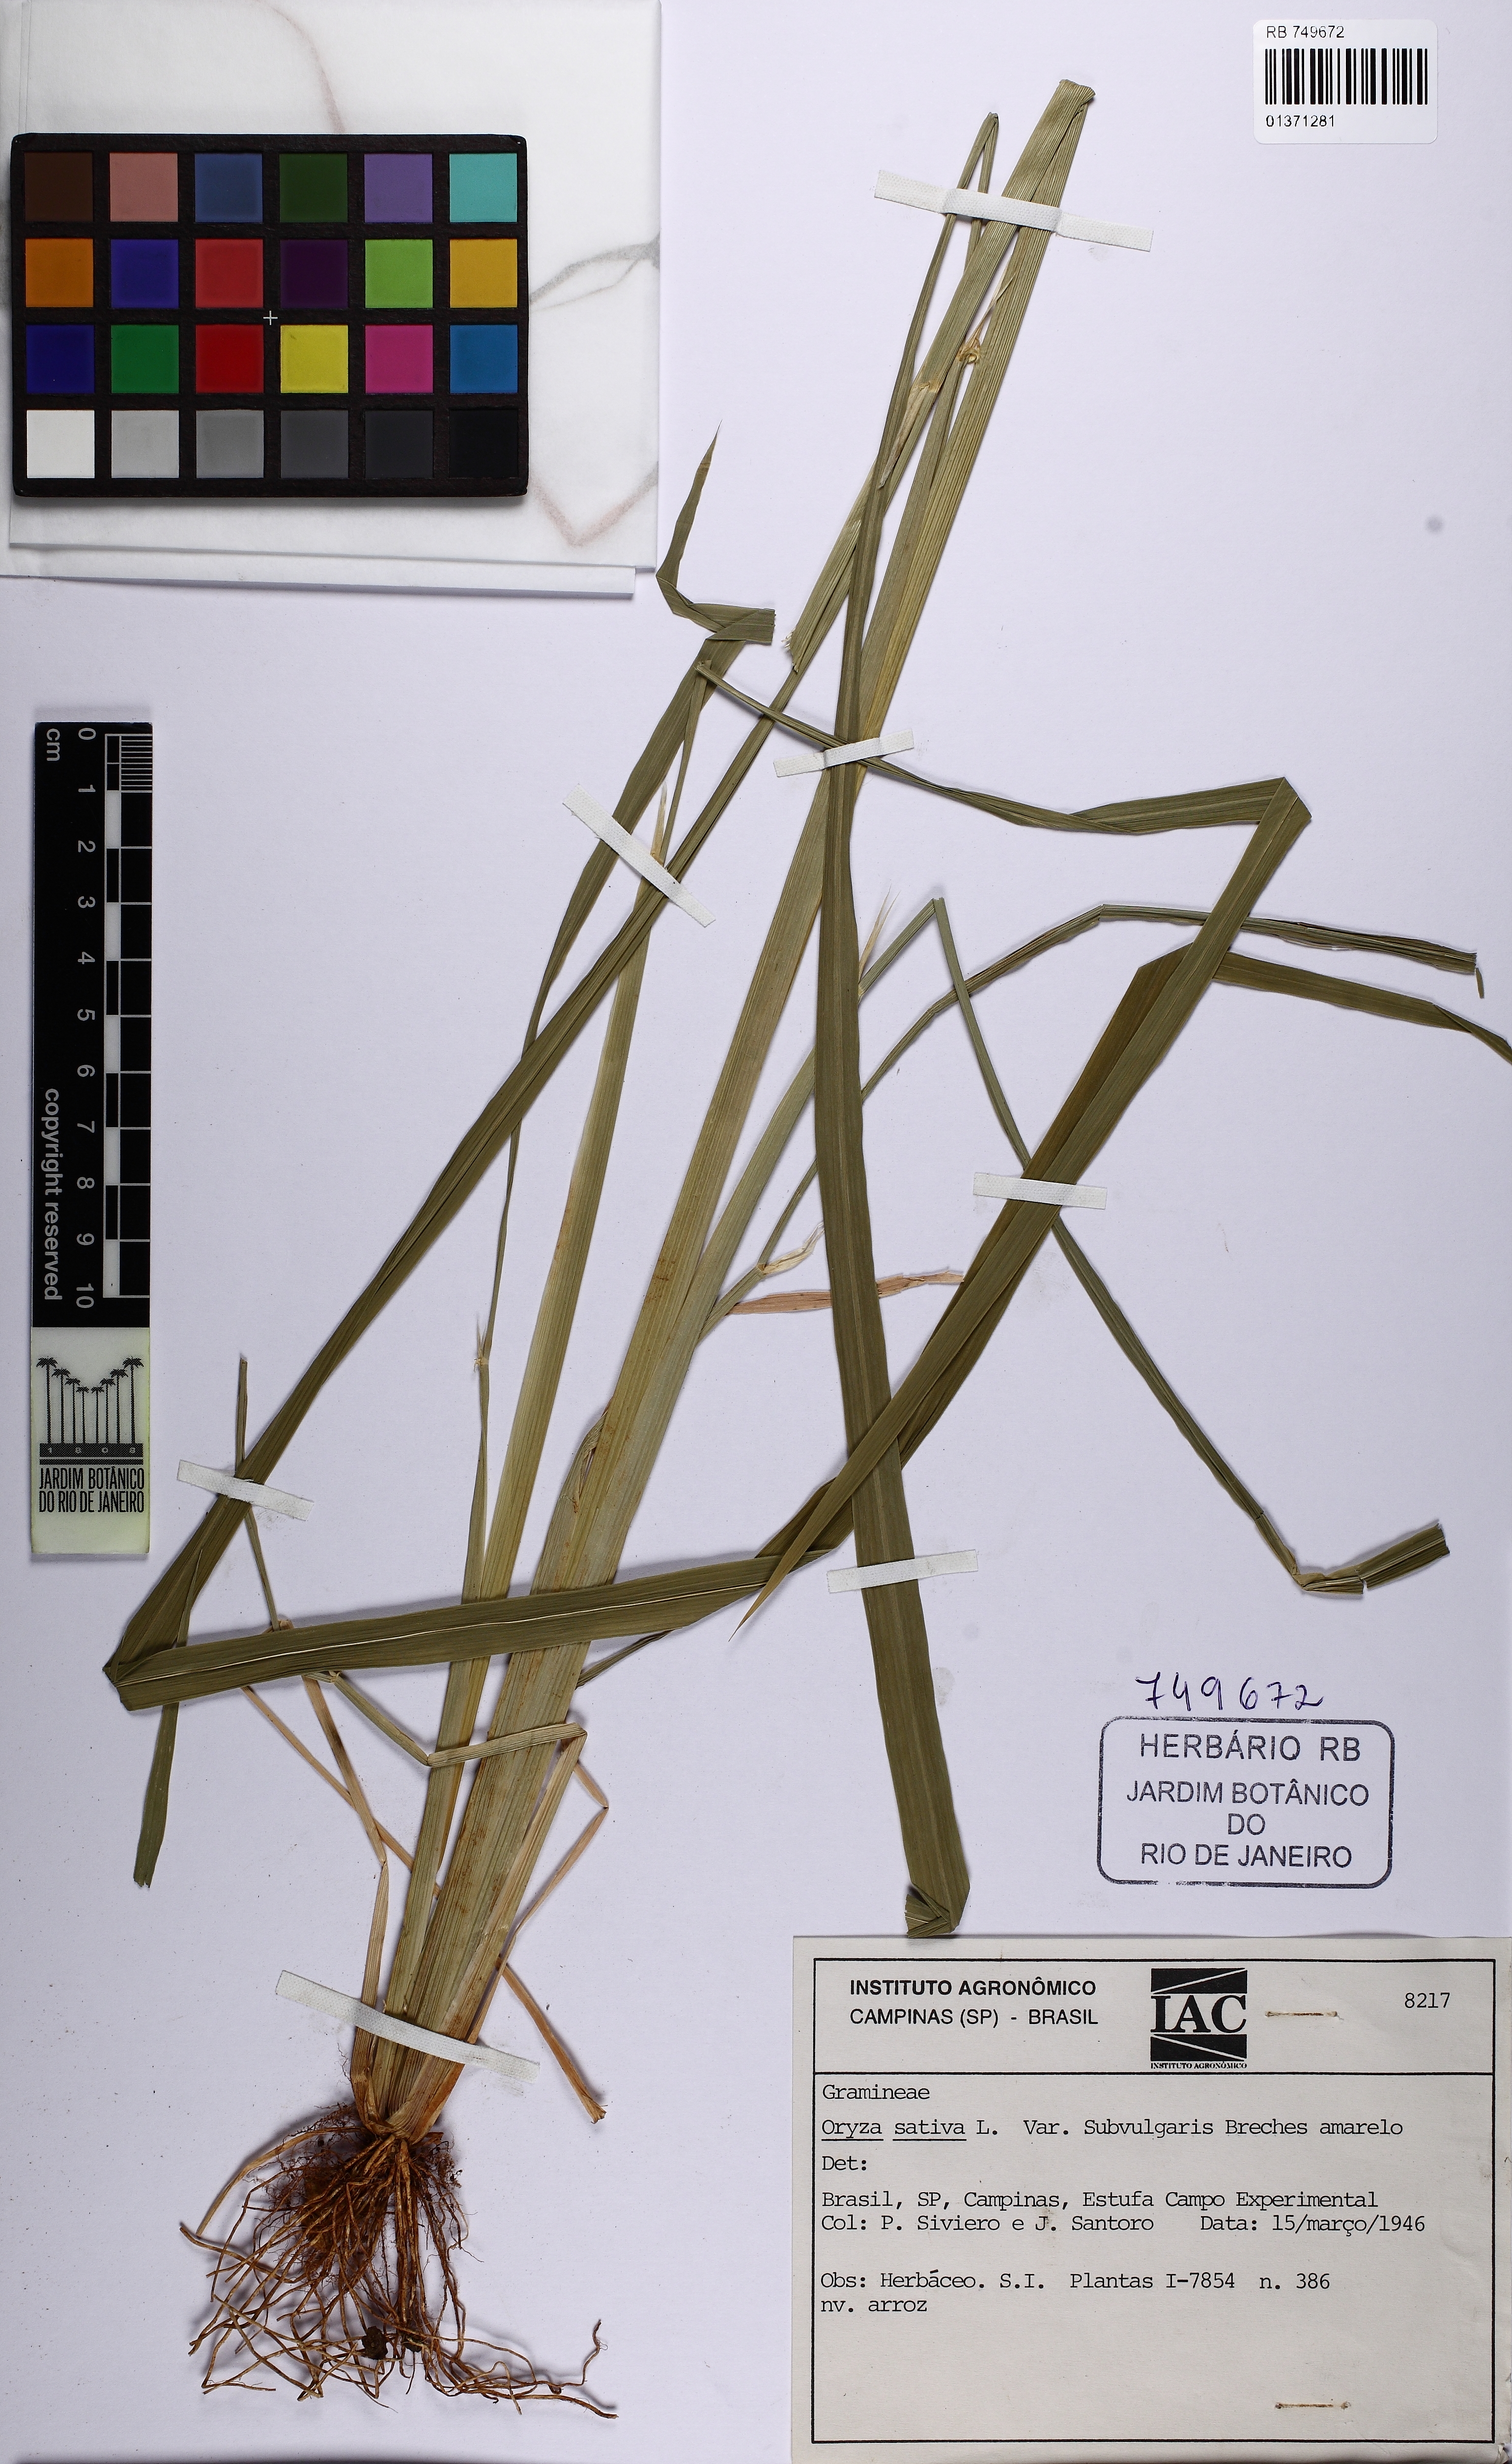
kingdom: Plantae
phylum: Tracheophyta
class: Liliopsida
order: Poales
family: Poaceae
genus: Oryza
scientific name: Oryza sativa
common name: Rice
